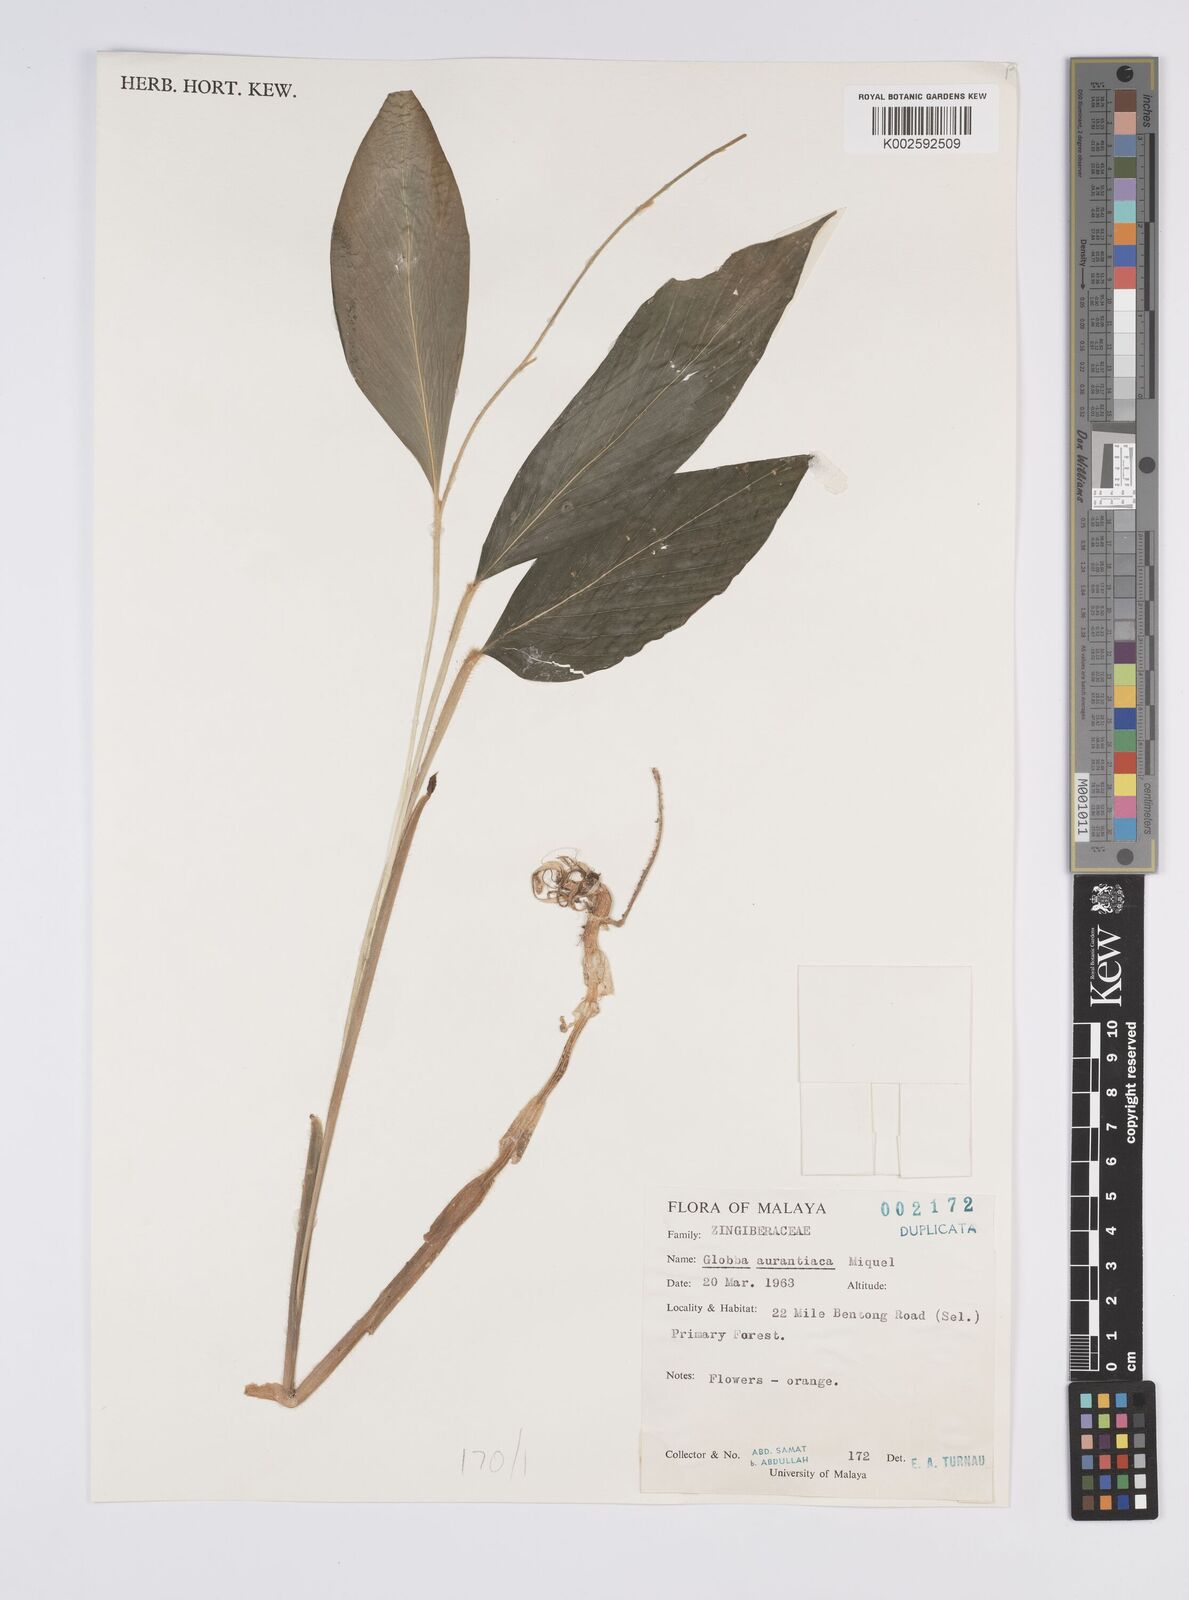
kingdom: Plantae
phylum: Tracheophyta
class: Liliopsida
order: Zingiberales
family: Zingiberaceae
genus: Globba
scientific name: Globba aurantiaca
